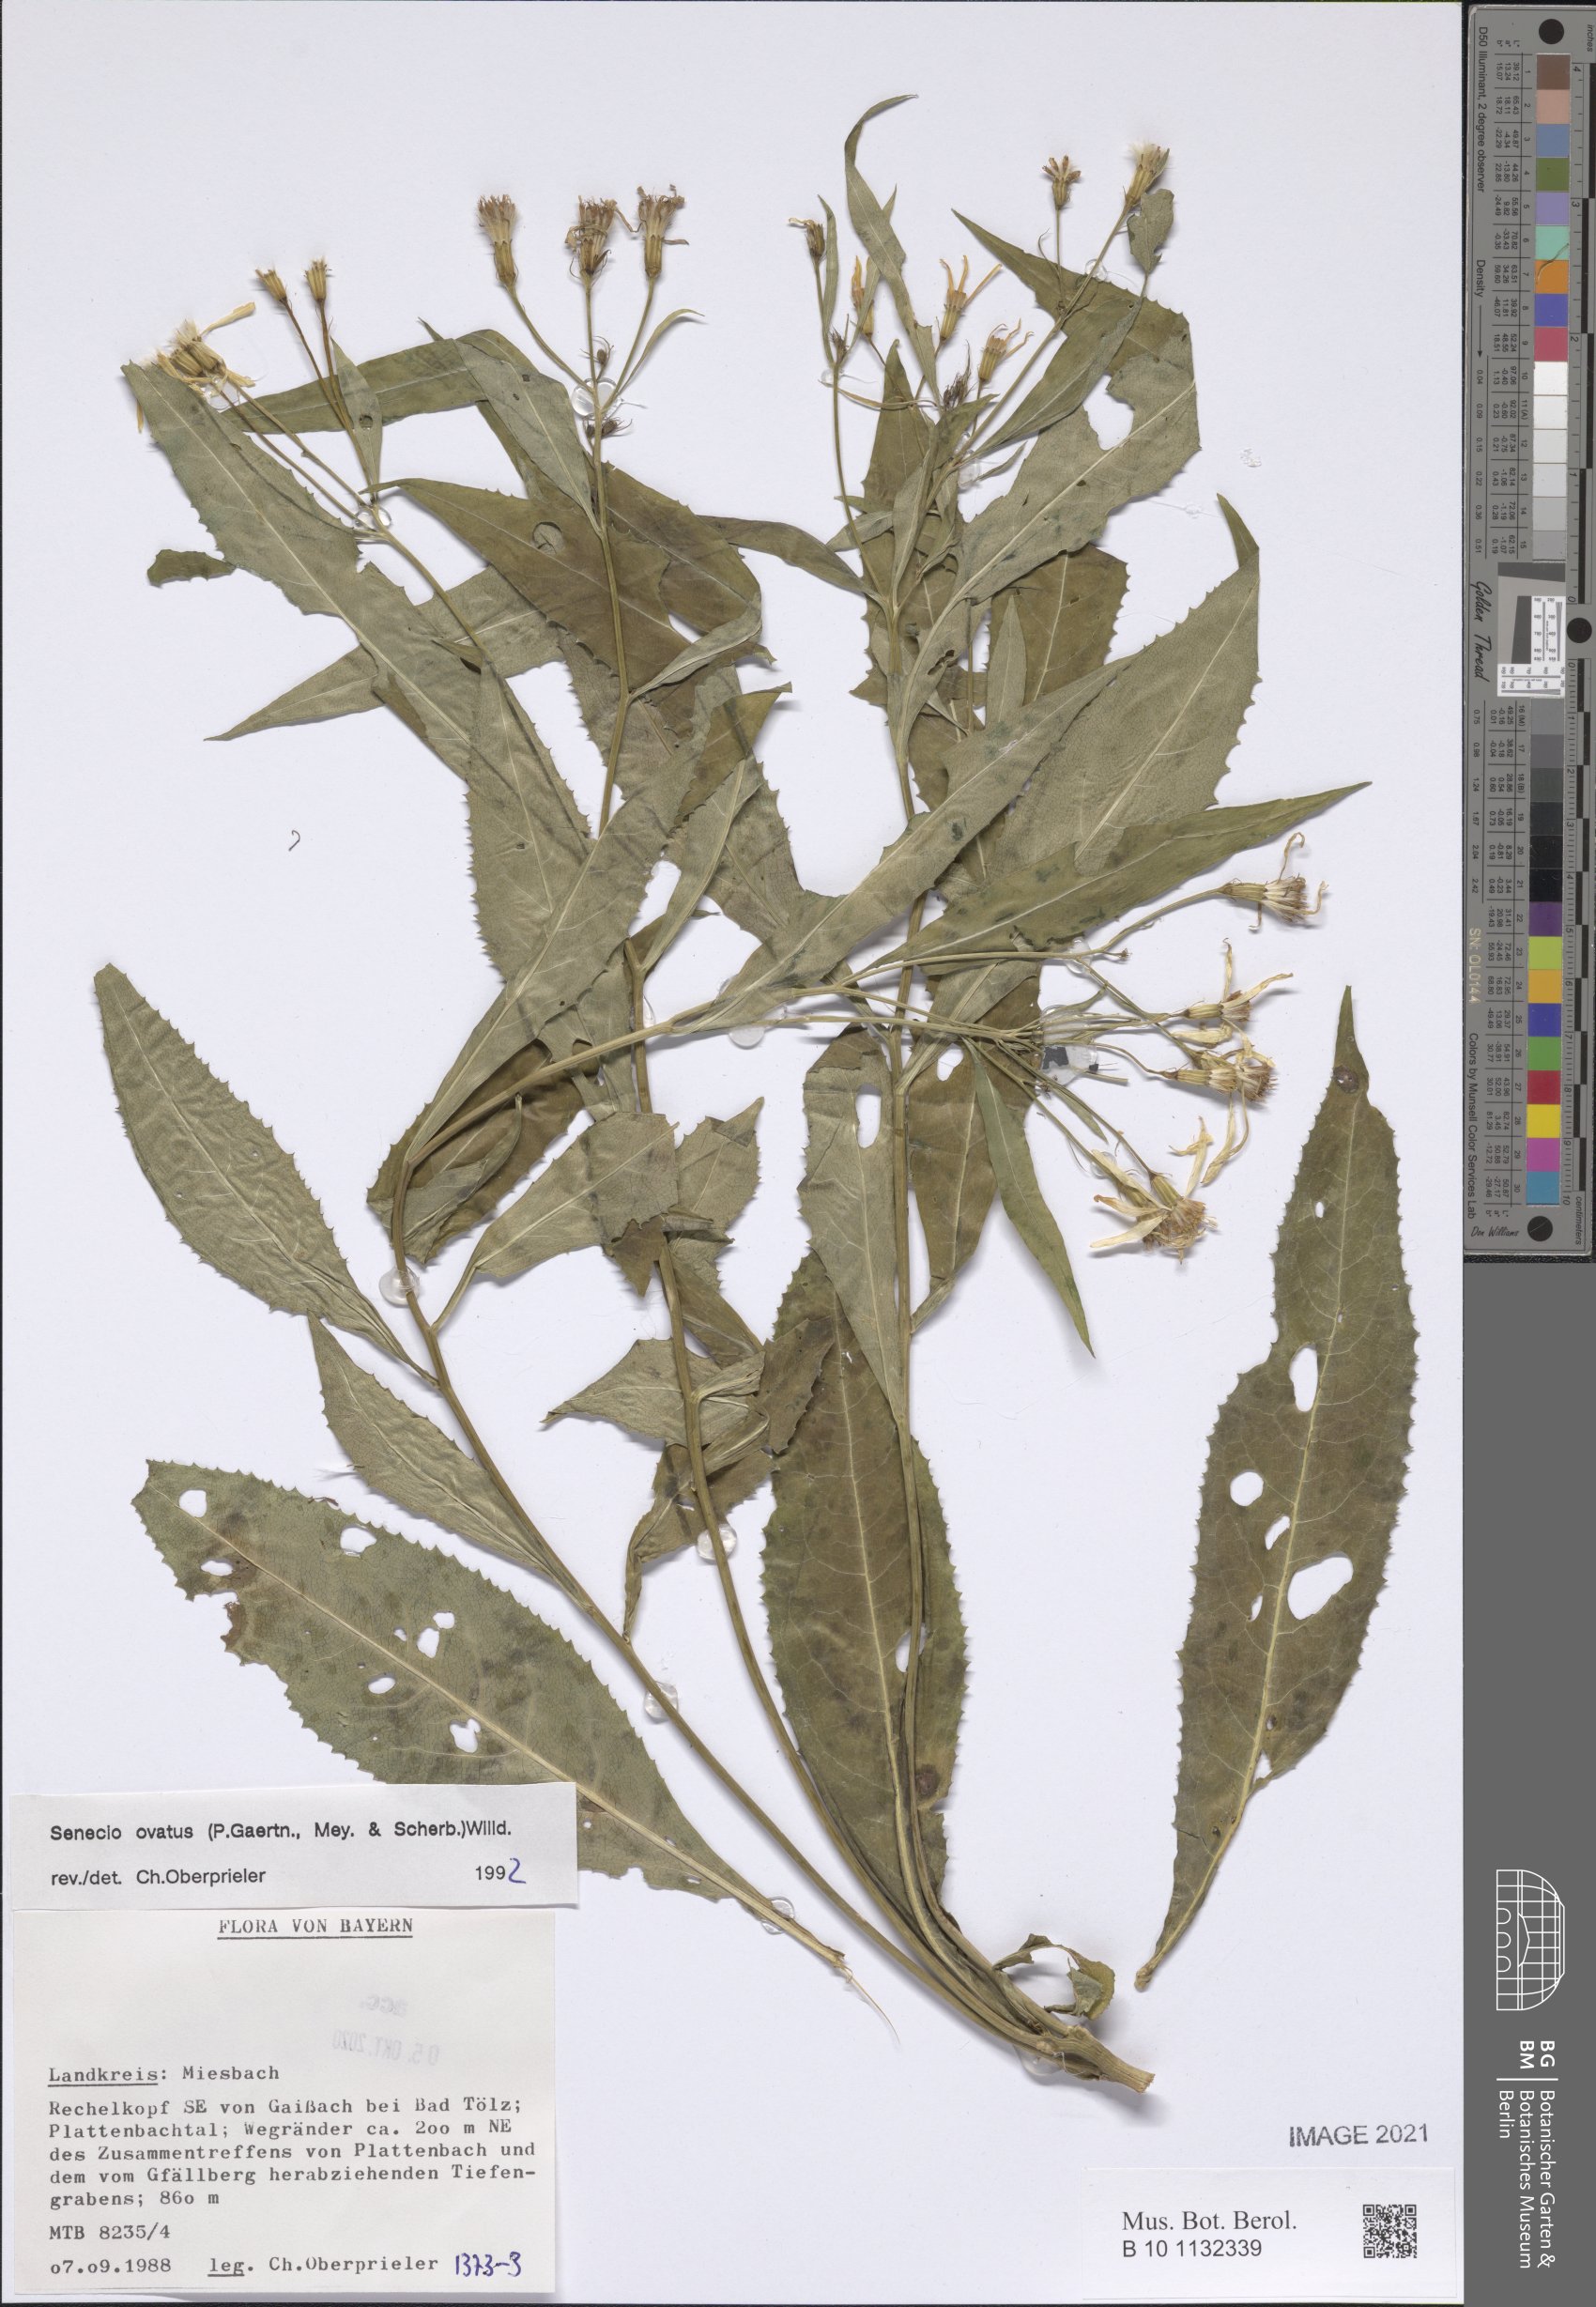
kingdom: Plantae
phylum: Tracheophyta
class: Magnoliopsida
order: Asterales
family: Asteraceae
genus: Senecio
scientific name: Senecio ovatus
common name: Wood ragwort
